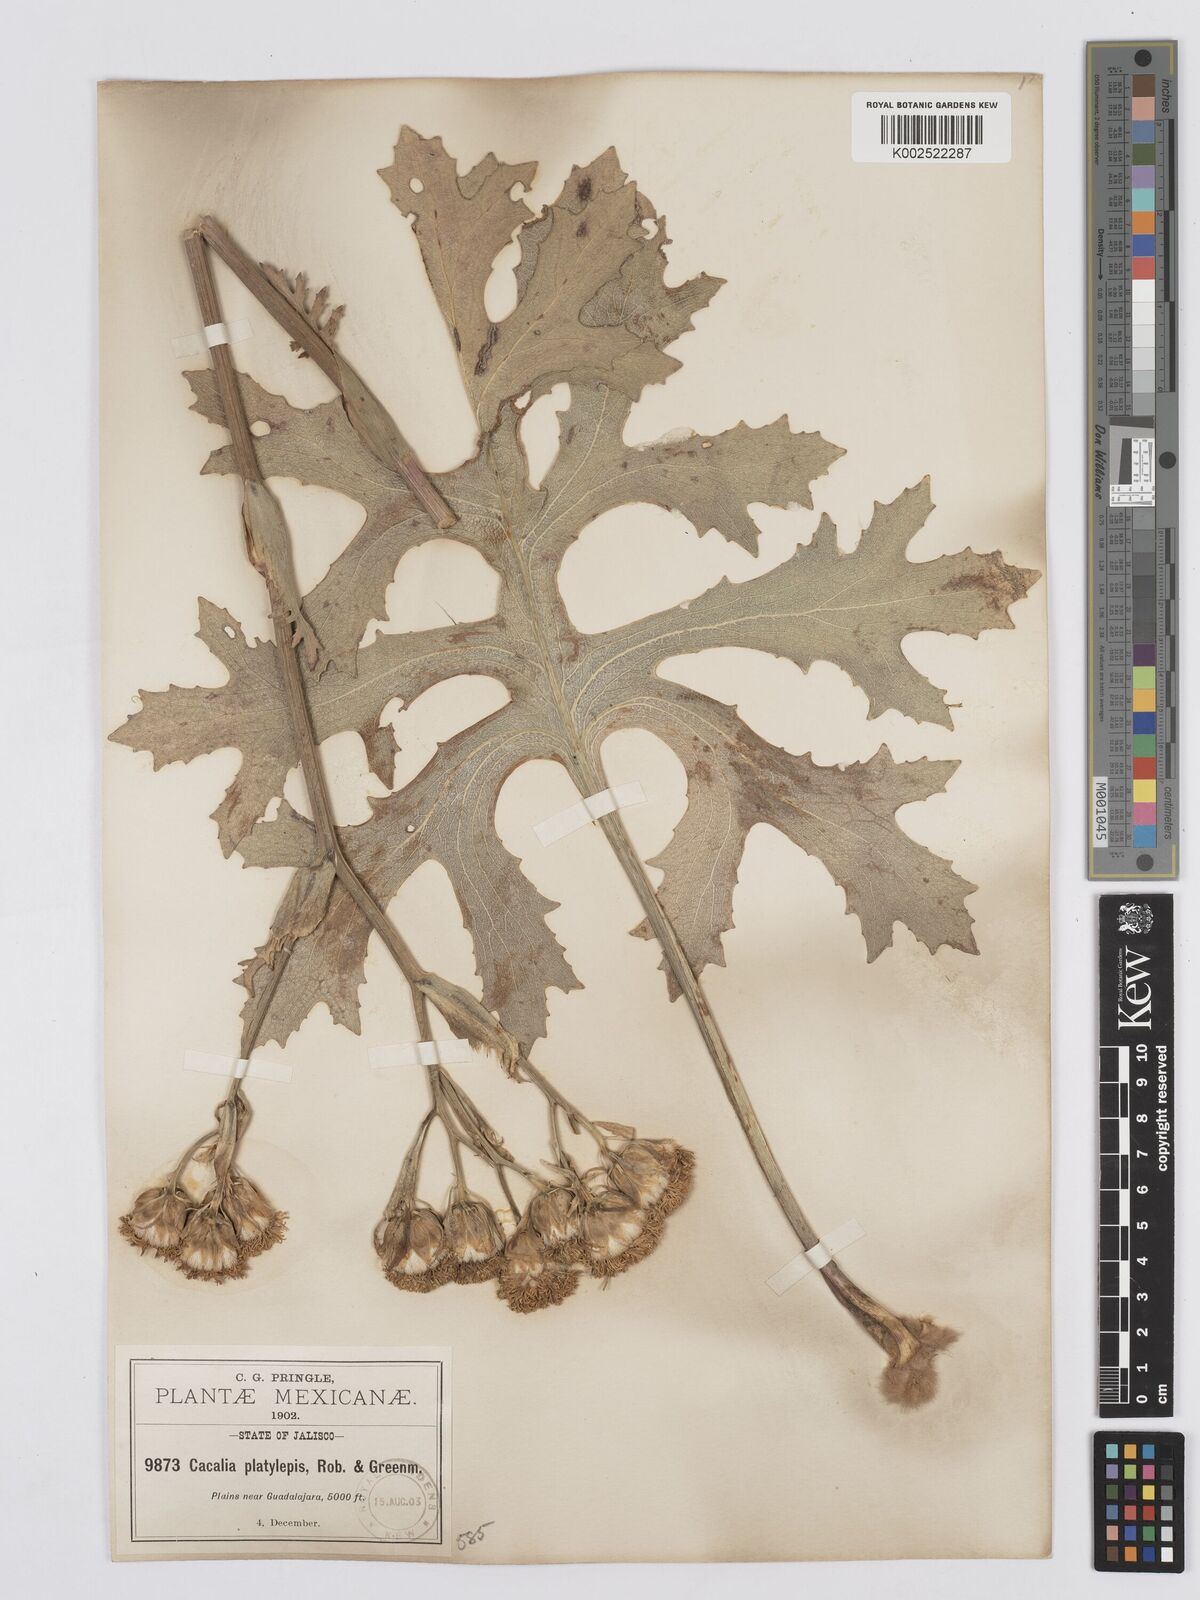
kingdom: Plantae
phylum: Tracheophyta
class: Magnoliopsida
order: Asterales
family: Asteraceae
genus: Psacalium
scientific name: Psacalium platylepis
